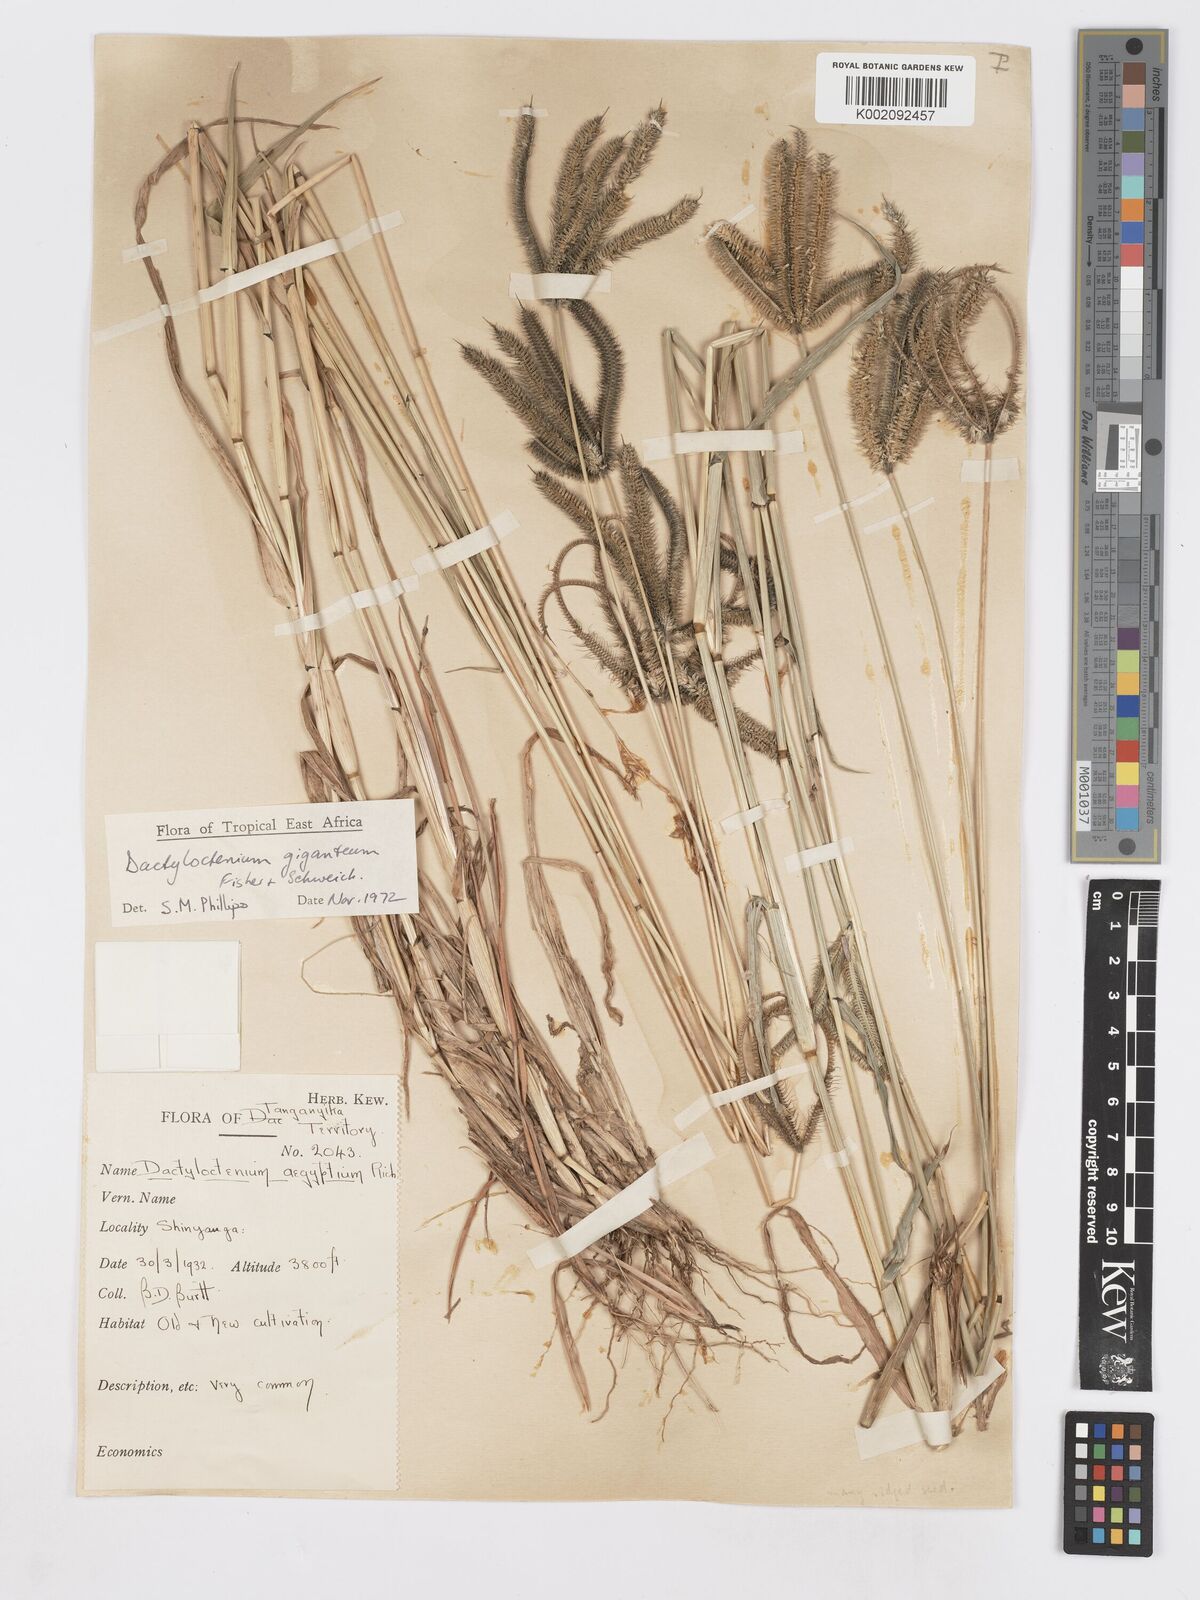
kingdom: Plantae
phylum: Tracheophyta
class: Liliopsida
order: Poales
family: Poaceae
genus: Dactyloctenium
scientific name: Dactyloctenium giganteum
